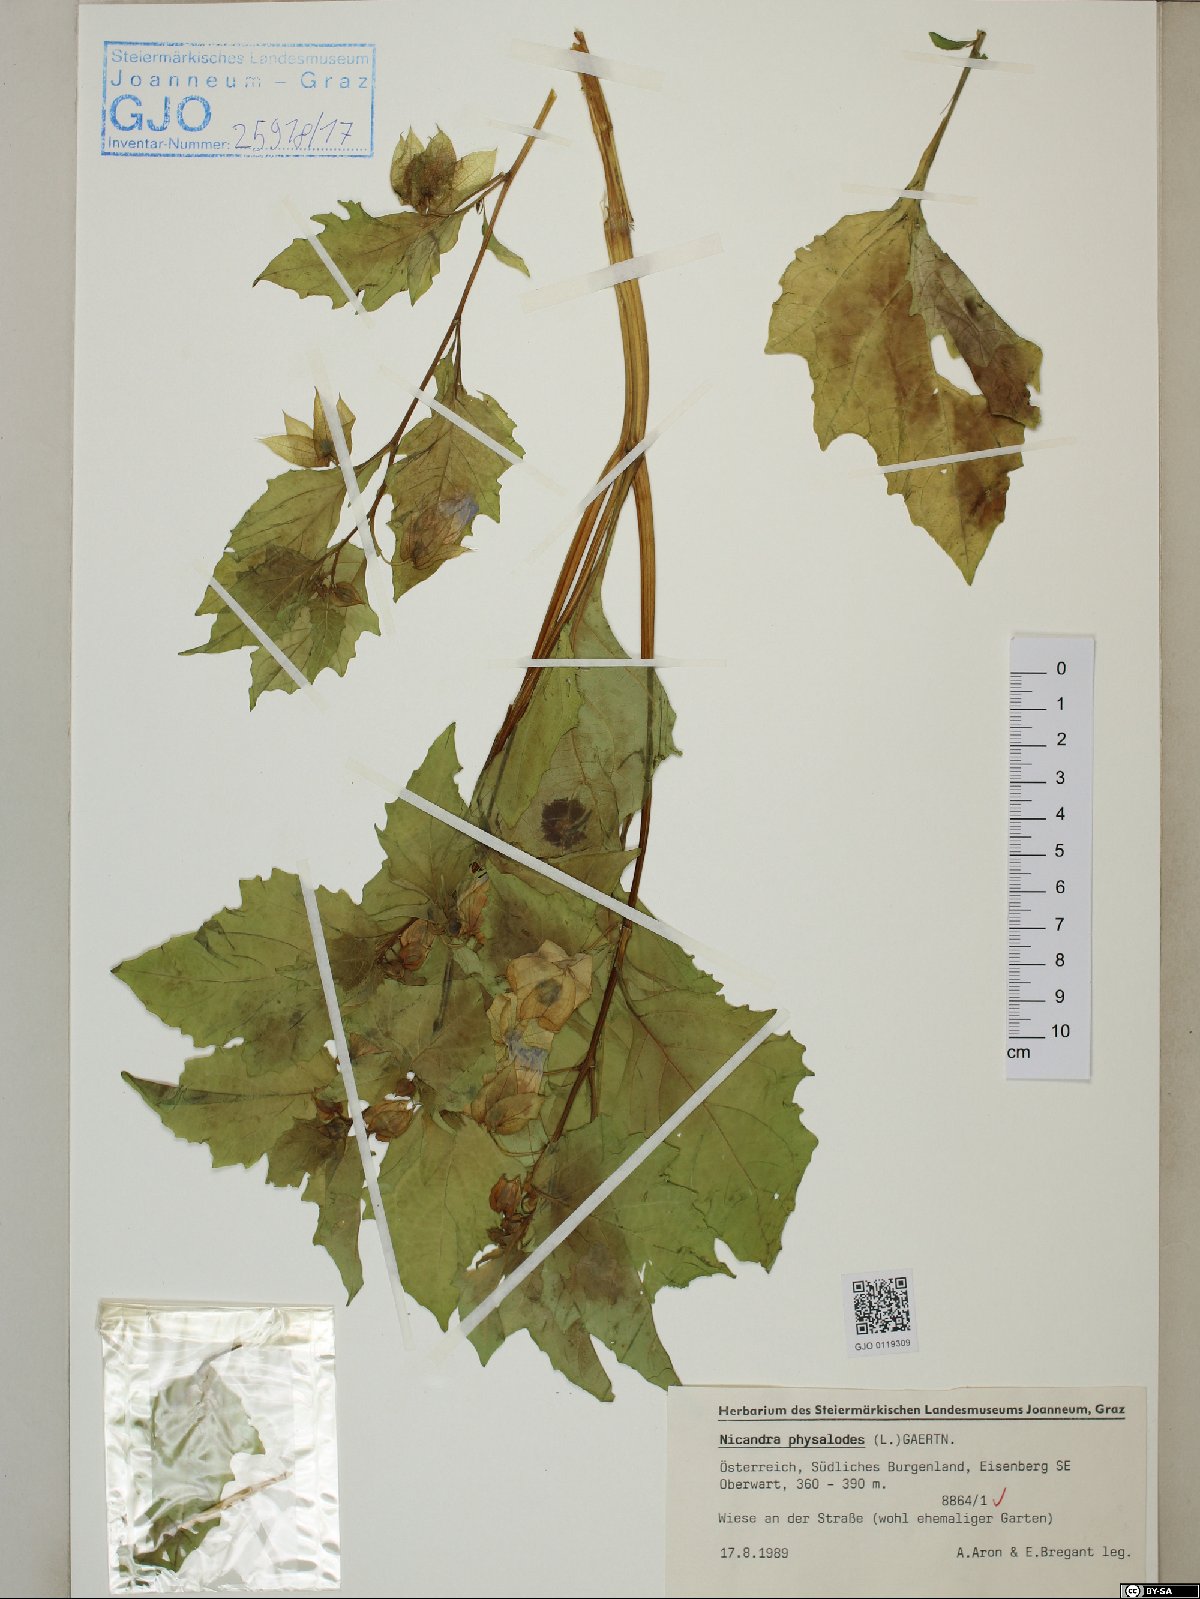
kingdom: Plantae
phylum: Tracheophyta
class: Magnoliopsida
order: Solanales
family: Solanaceae
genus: Nicandra
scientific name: Nicandra physalodes
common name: Apple-of-peru
